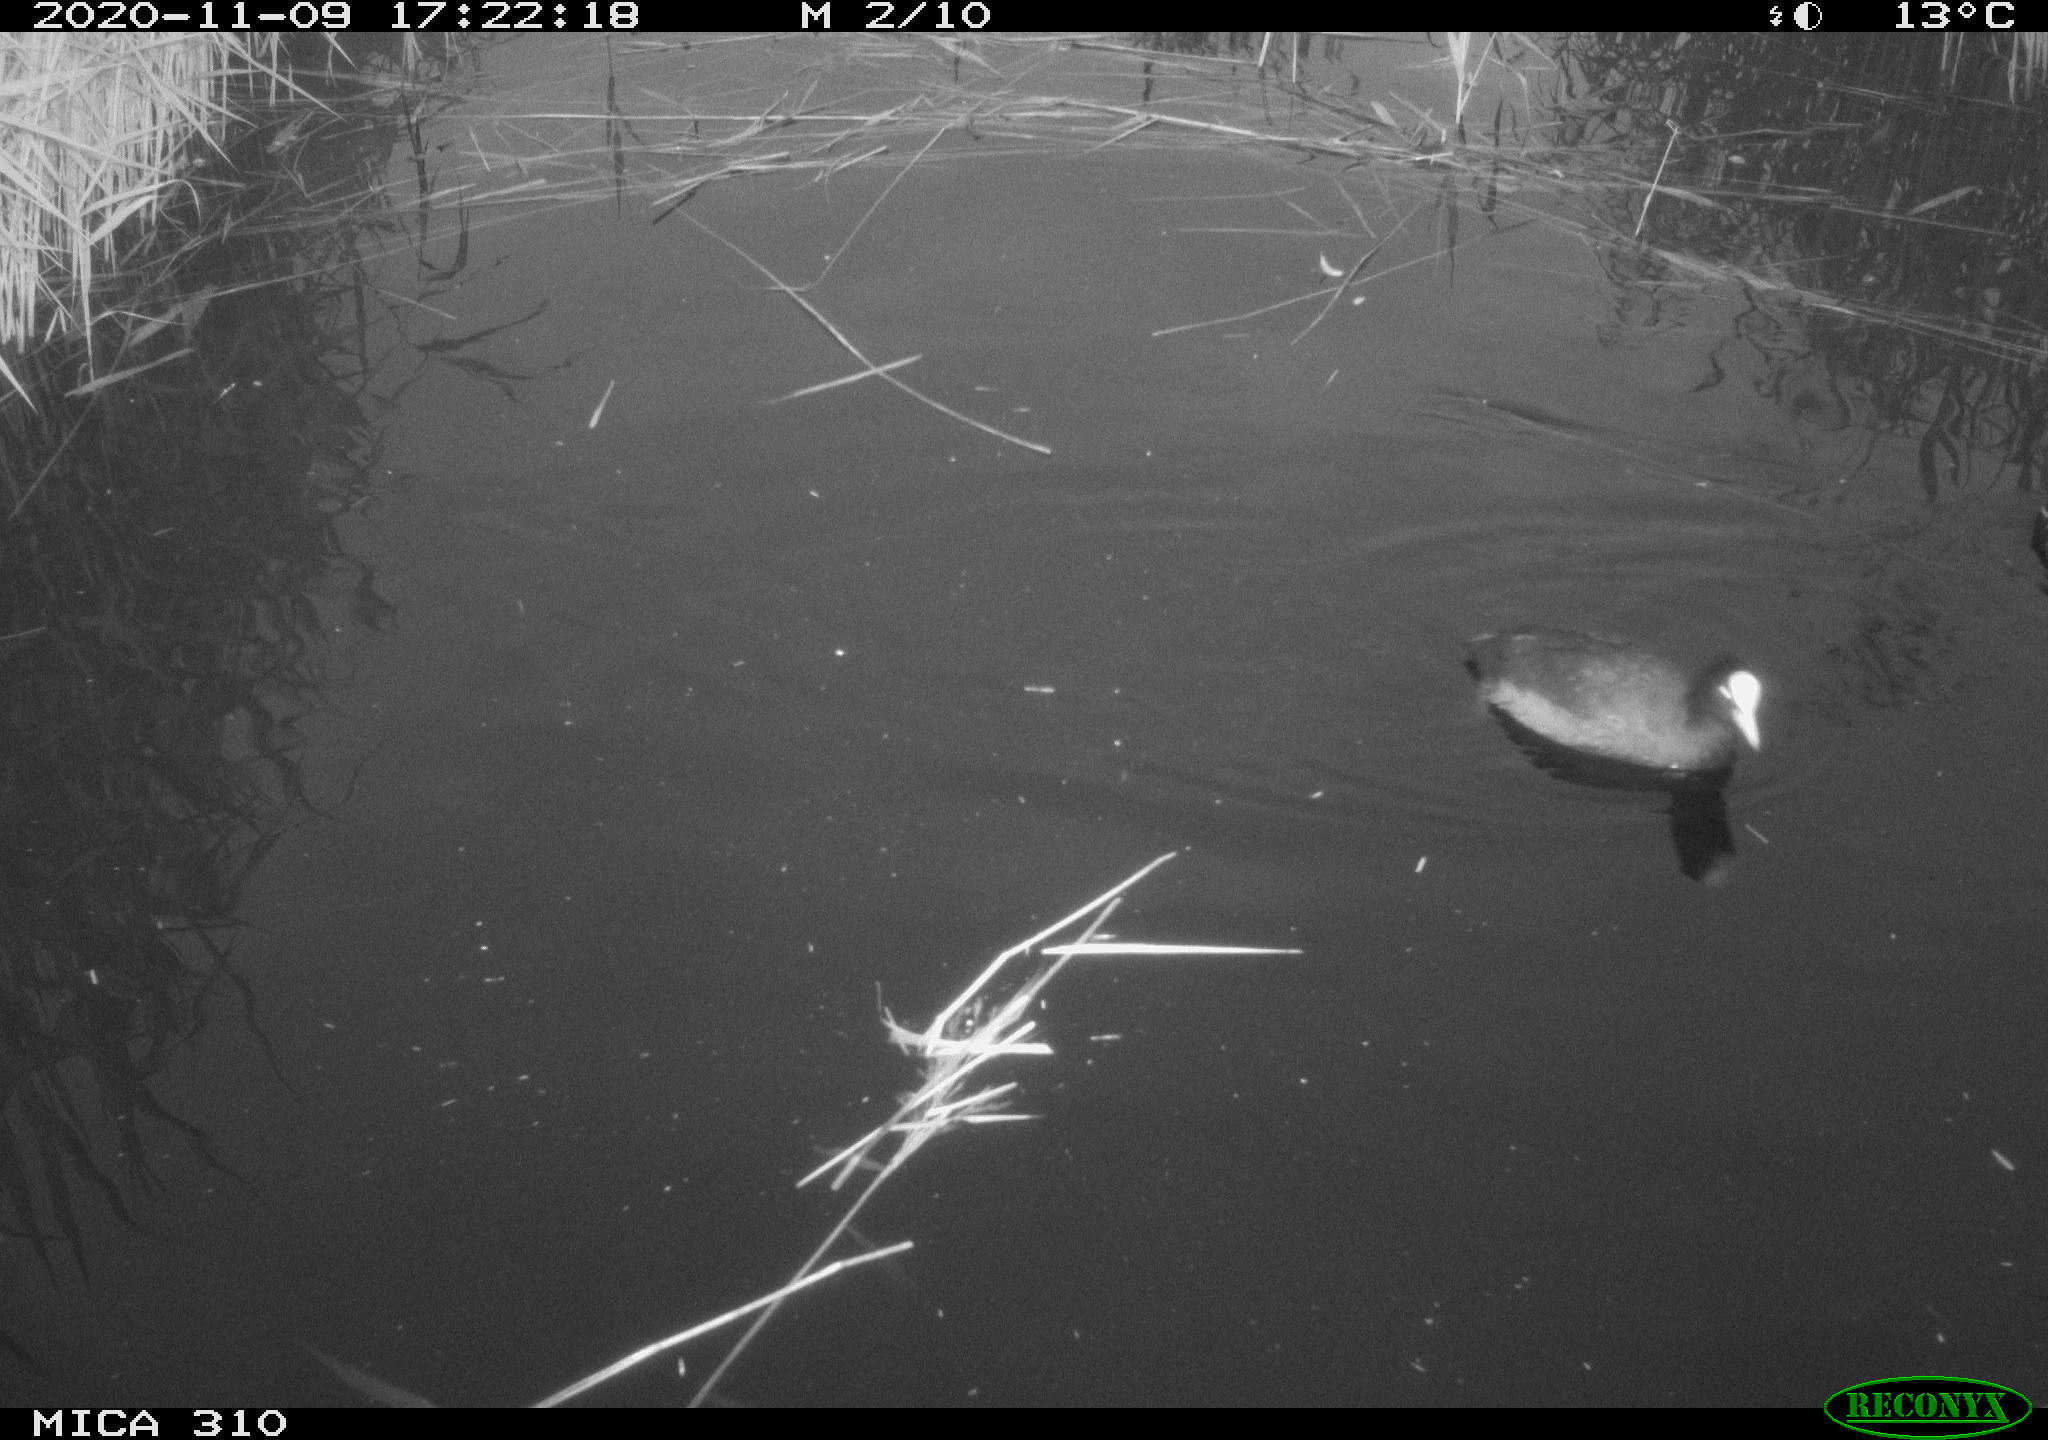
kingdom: Animalia
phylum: Chordata
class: Aves
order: Gruiformes
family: Rallidae
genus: Gallinula
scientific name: Gallinula chloropus
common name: Common moorhen
